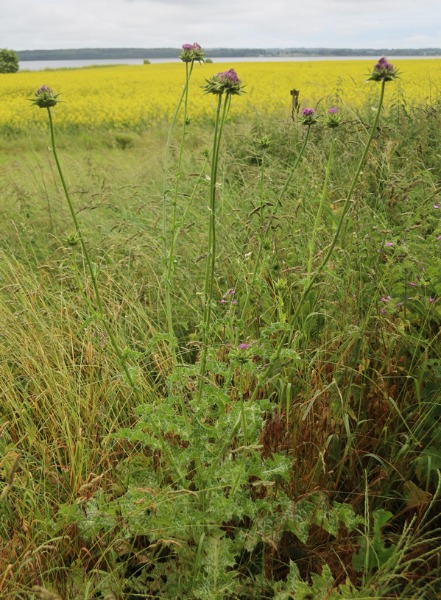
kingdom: Plantae
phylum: Tracheophyta
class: Magnoliopsida
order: Asterales
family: Asteraceae
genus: Silybum
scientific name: Silybum marianum
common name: Marietidsel
